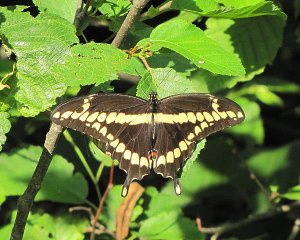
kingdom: Animalia
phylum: Arthropoda
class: Insecta
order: Lepidoptera
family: Papilionidae
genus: Papilio
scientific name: Papilio cresphontes
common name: Eastern Giant Swallowtail
